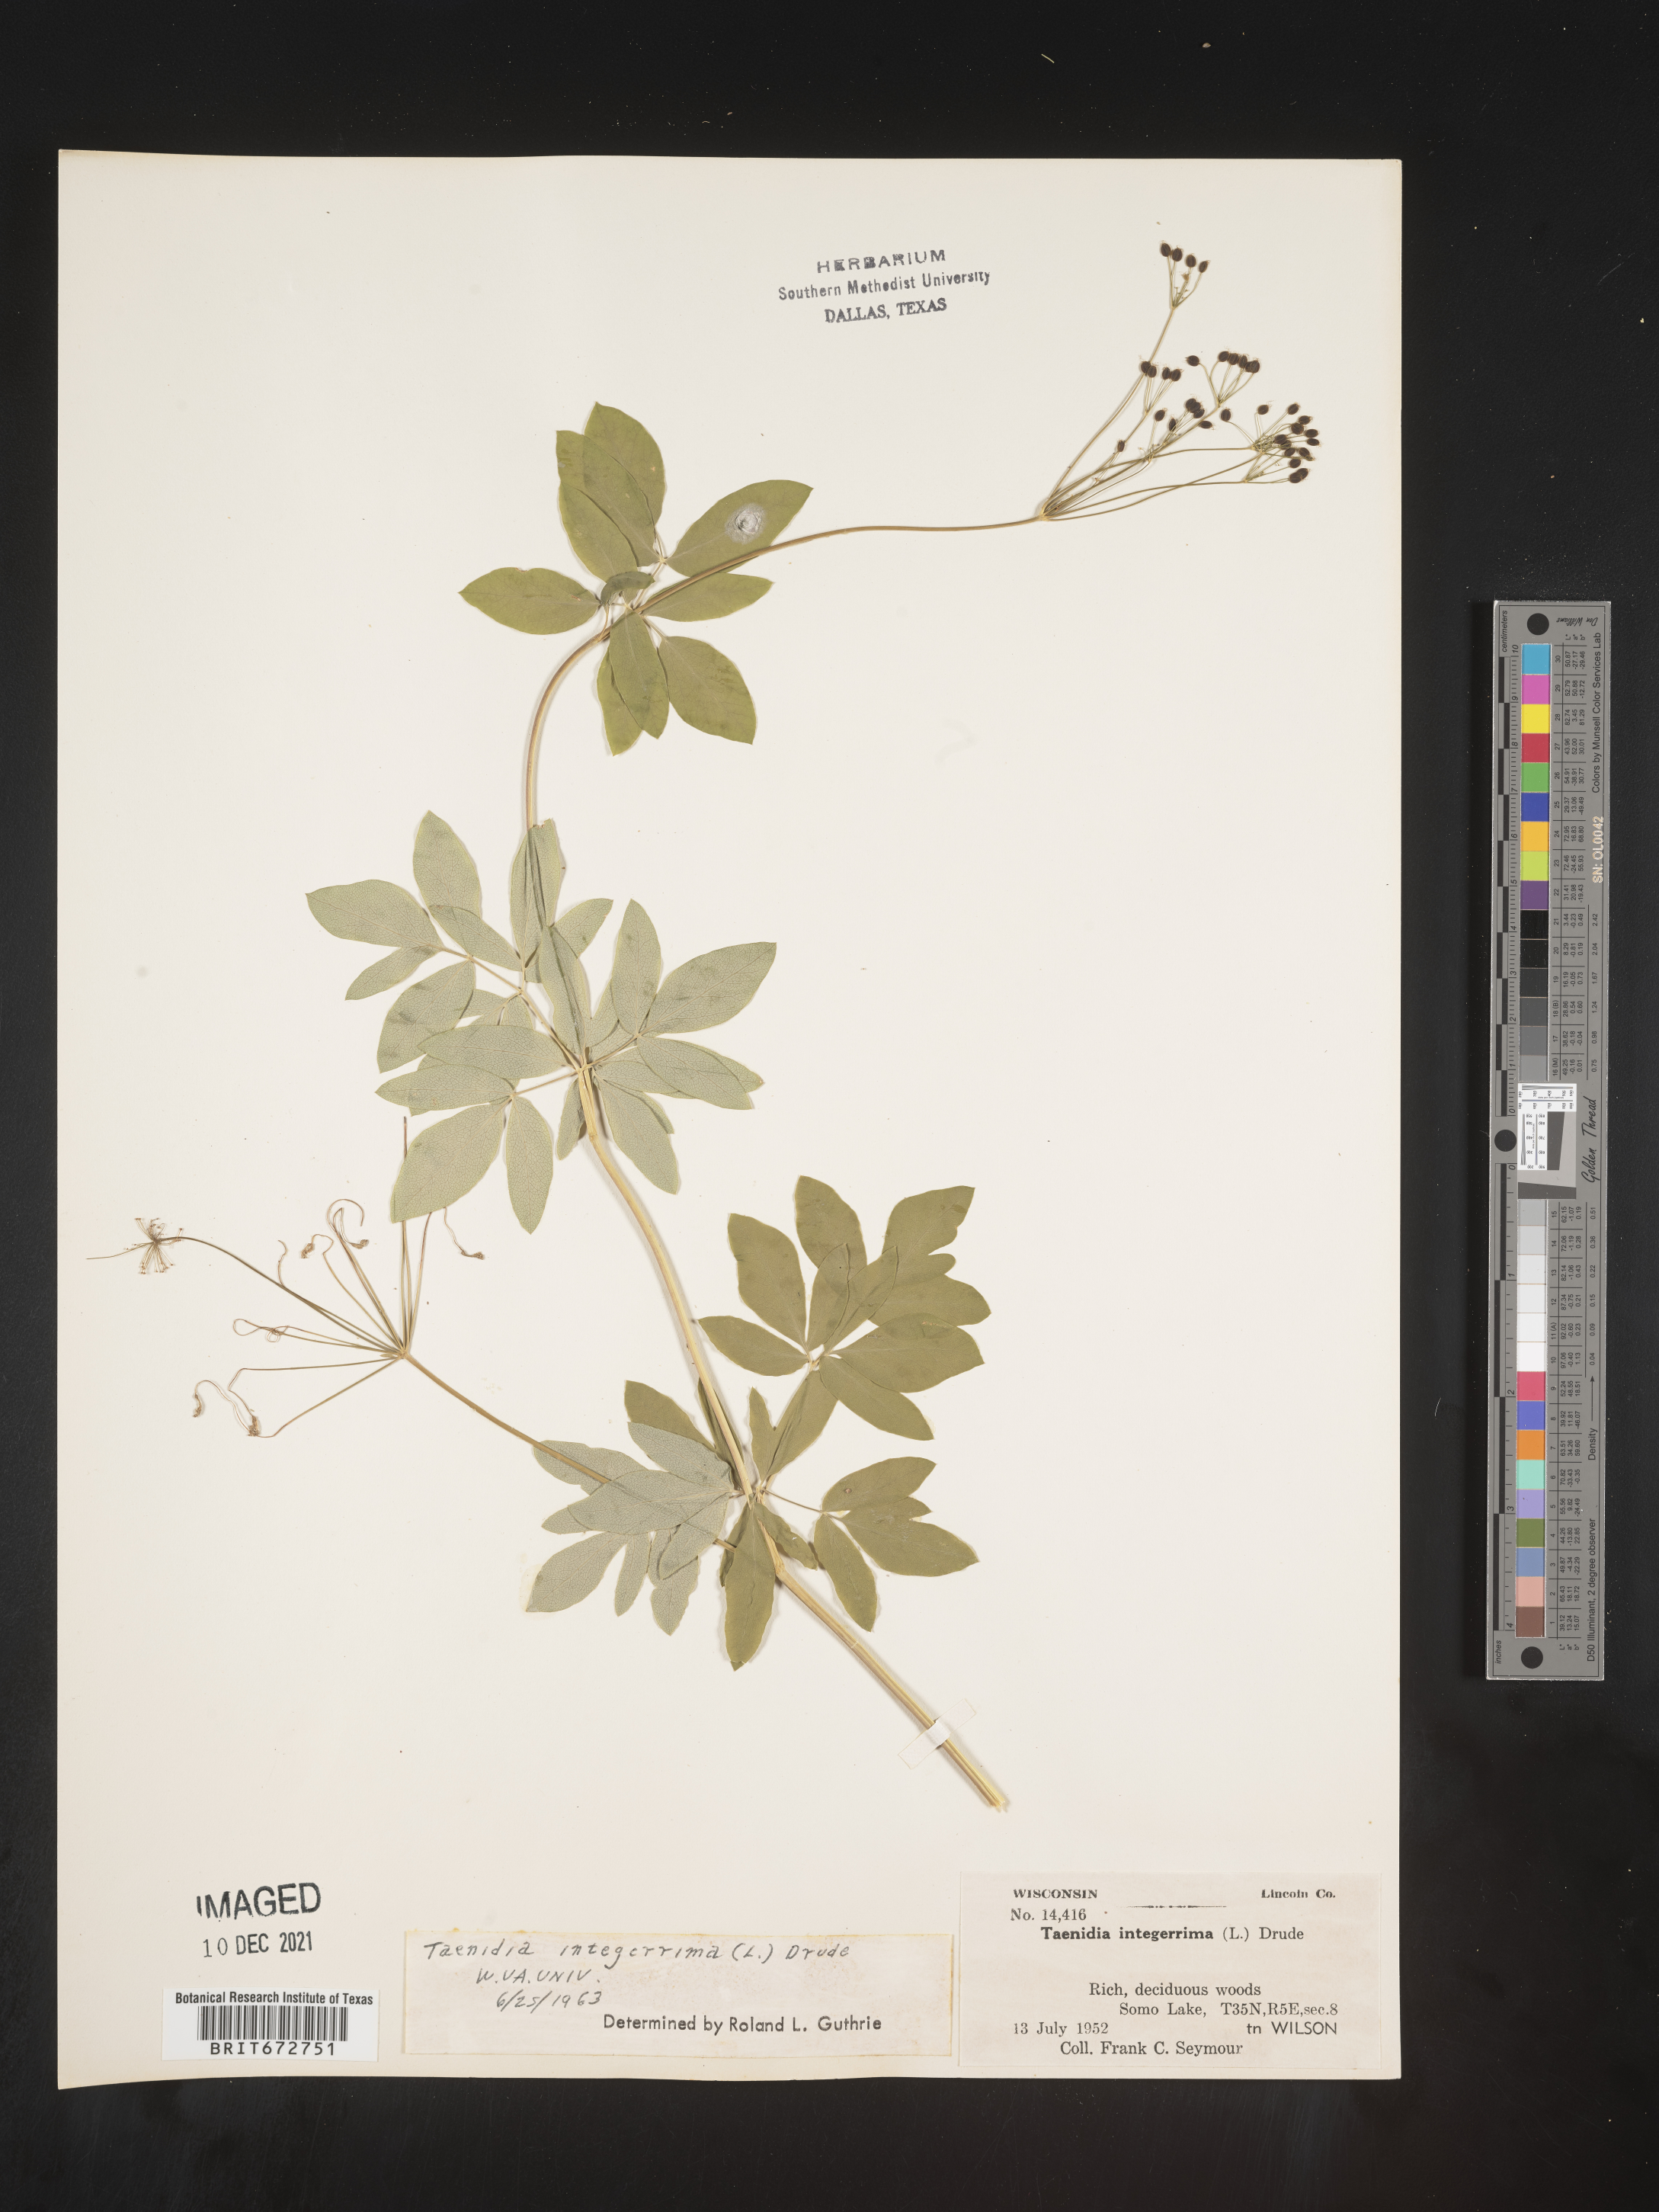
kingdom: Plantae
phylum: Tracheophyta
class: Magnoliopsida
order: Apiales
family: Apiaceae
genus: Taenidia
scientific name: Taenidia
